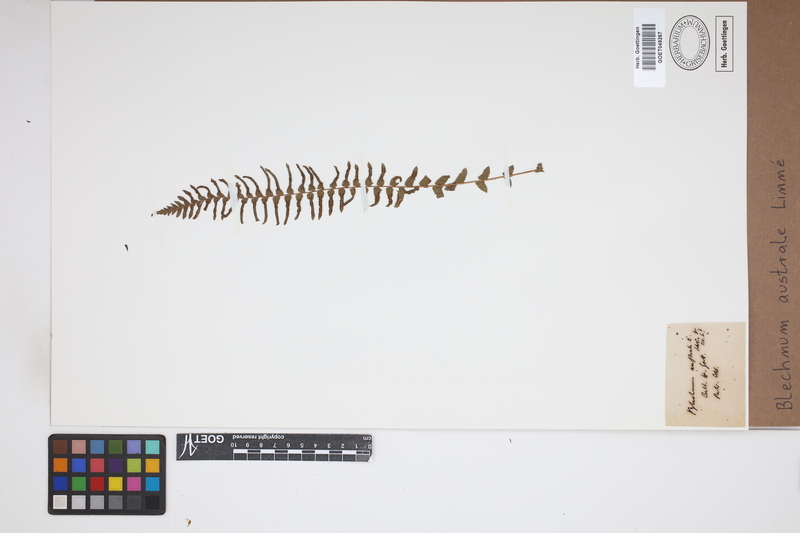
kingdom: Plantae
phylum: Tracheophyta
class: Polypodiopsida
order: Polypodiales
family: Blechnaceae
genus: Blechnum
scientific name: Blechnum australe
